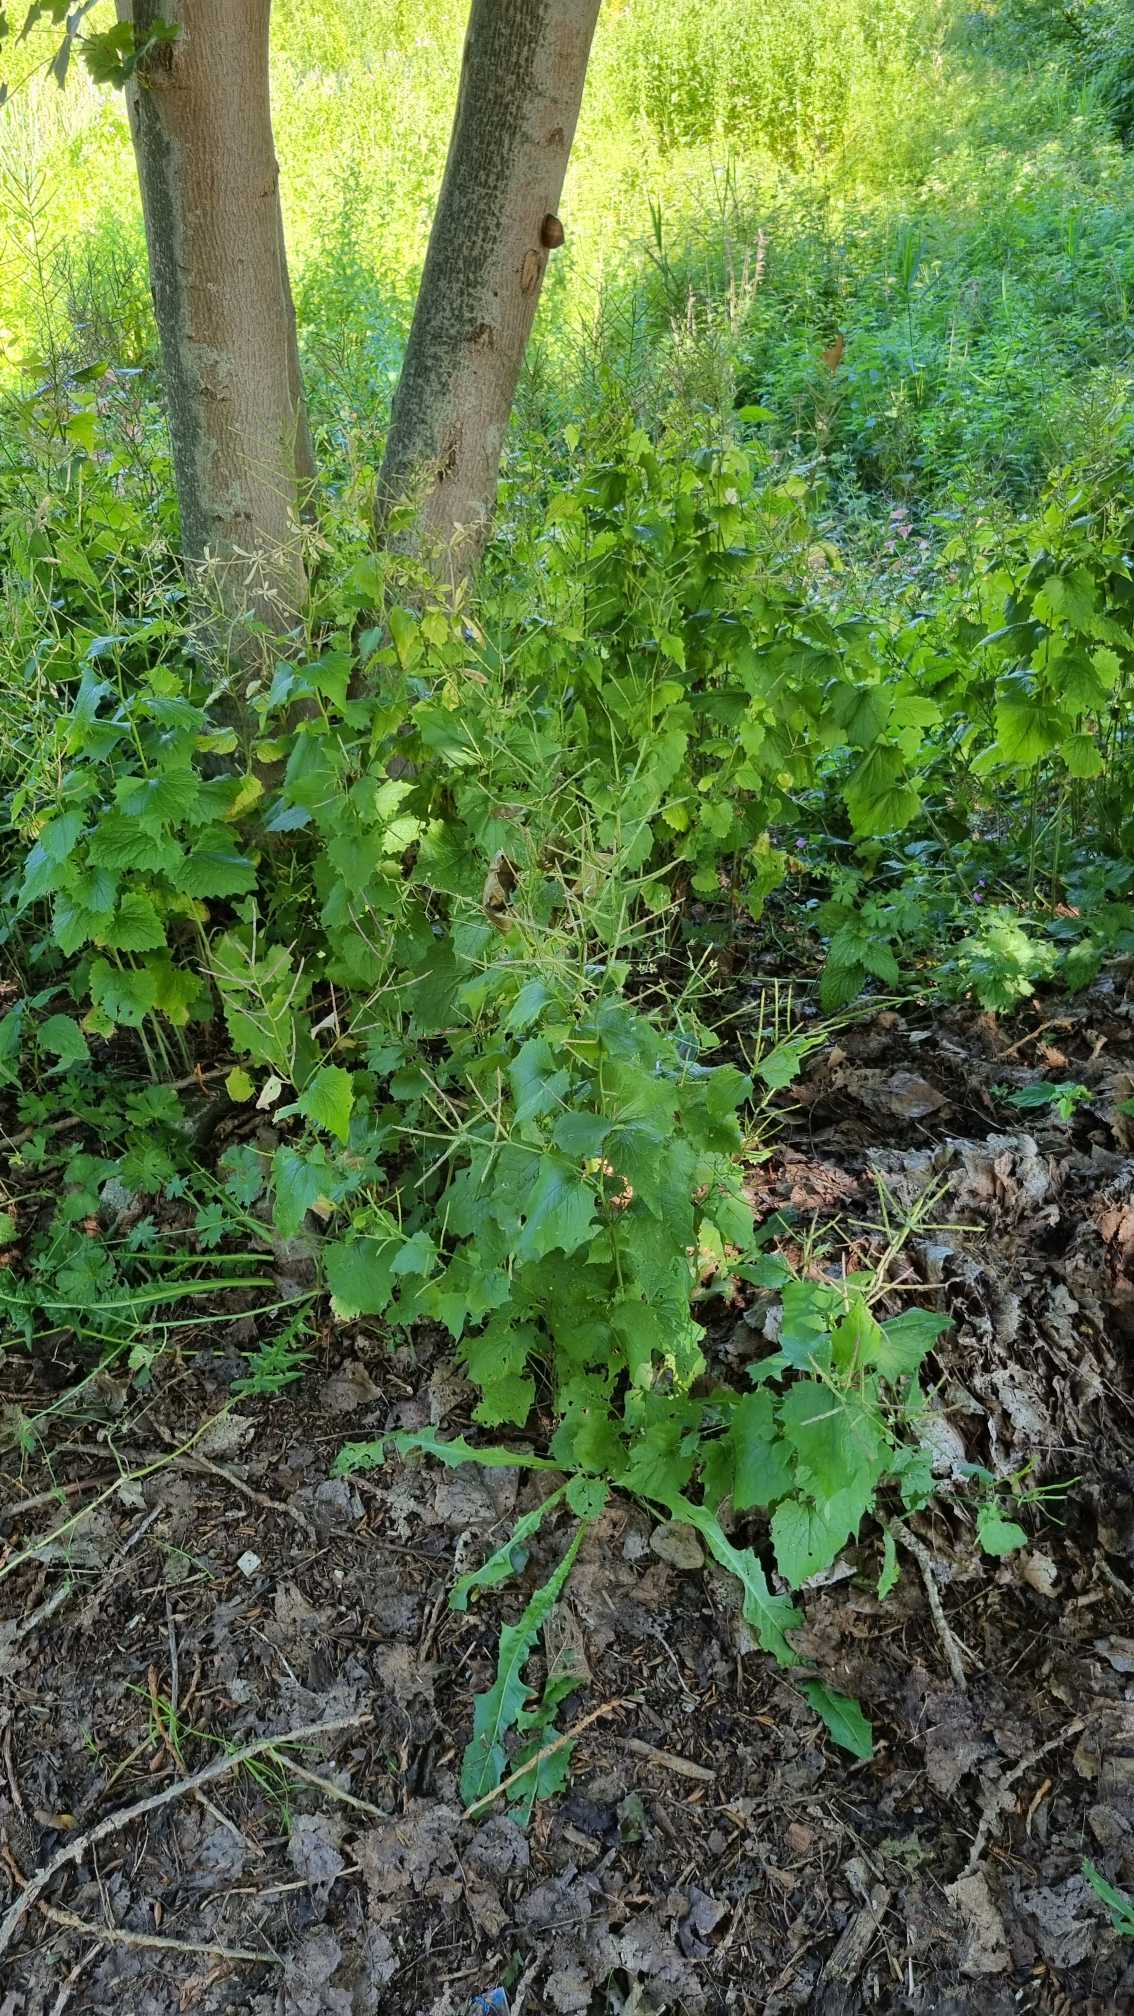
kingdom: Plantae
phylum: Tracheophyta
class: Magnoliopsida
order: Brassicales
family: Brassicaceae
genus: Alliaria
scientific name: Alliaria petiolata
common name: Løgkarse
